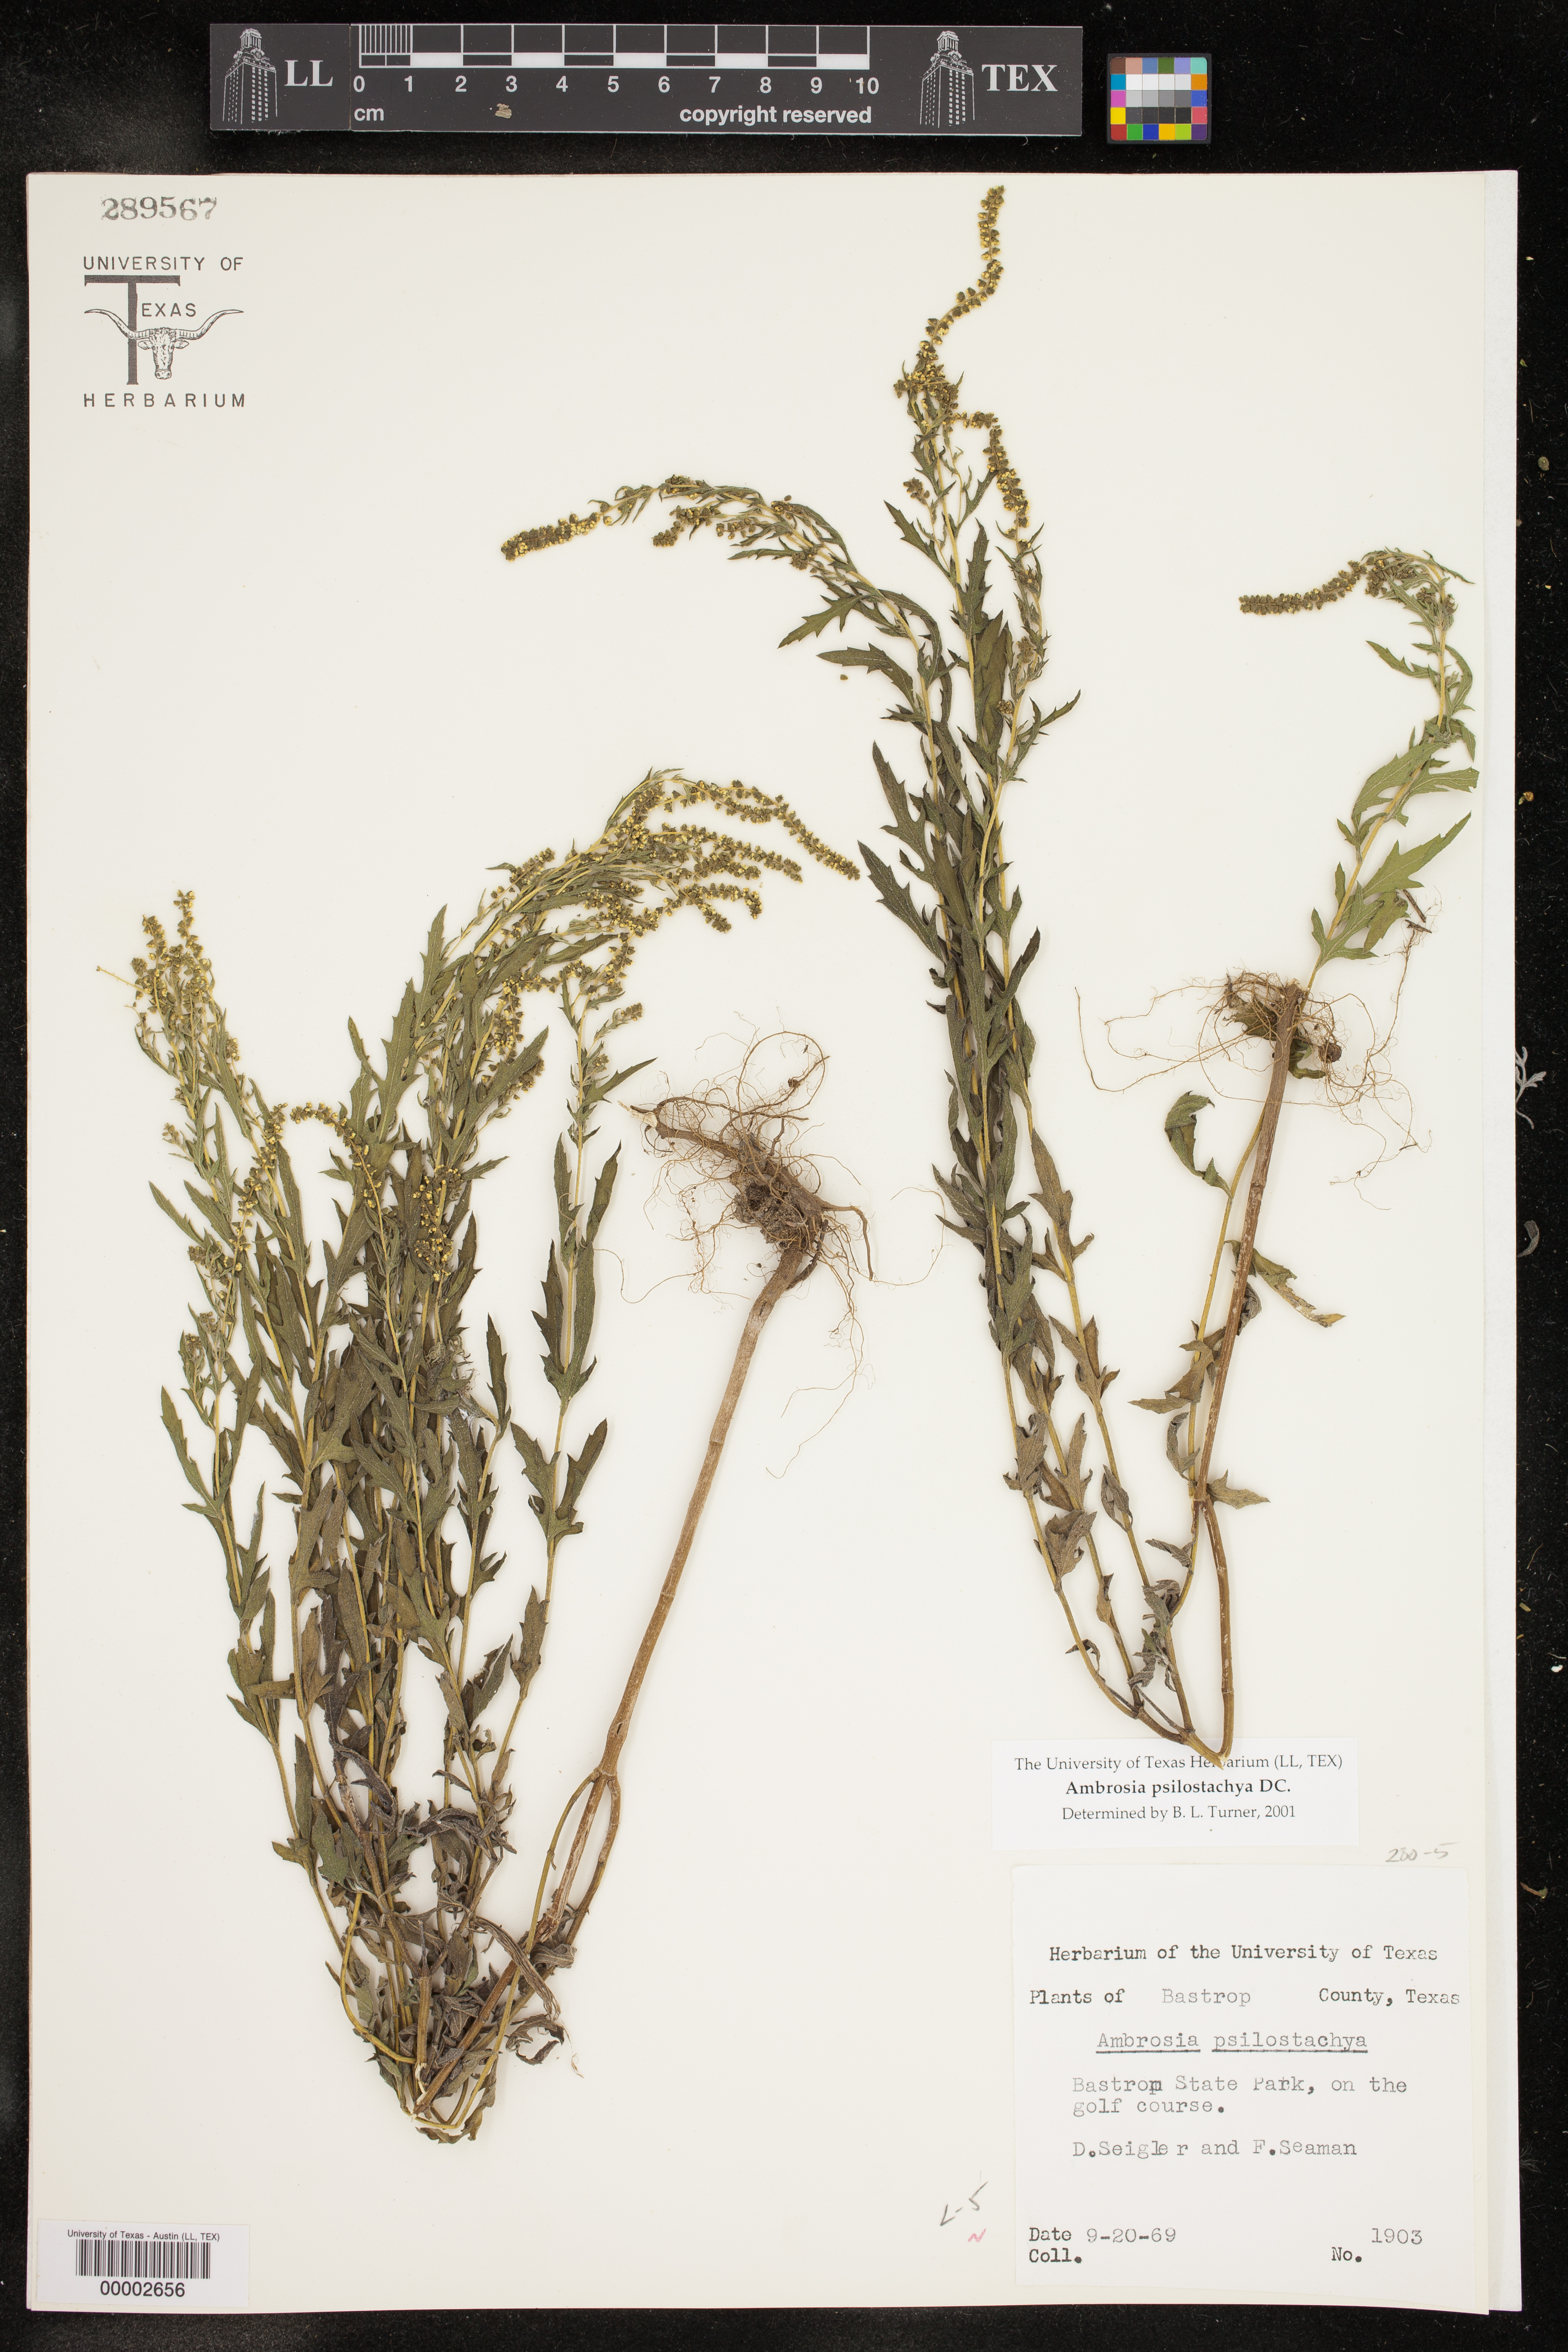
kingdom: Plantae
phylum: Tracheophyta
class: Magnoliopsida
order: Asterales
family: Asteraceae
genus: Ambrosia
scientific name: Ambrosia psilostachya
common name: Perennial ragweed
